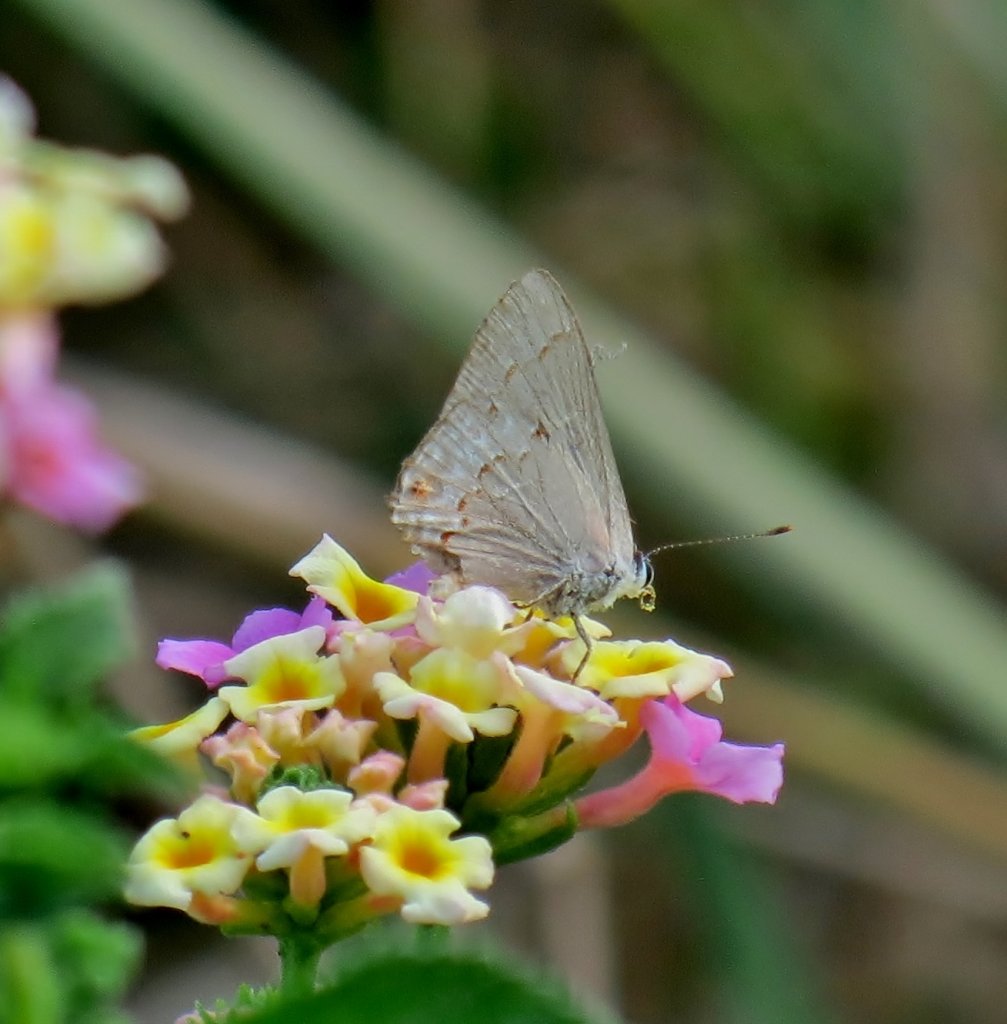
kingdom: Animalia
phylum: Arthropoda
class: Insecta
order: Lepidoptera
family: Lycaenidae
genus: Thecla
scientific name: Thecla rufofusca
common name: Red-crescent Scrub-Hairstreak
